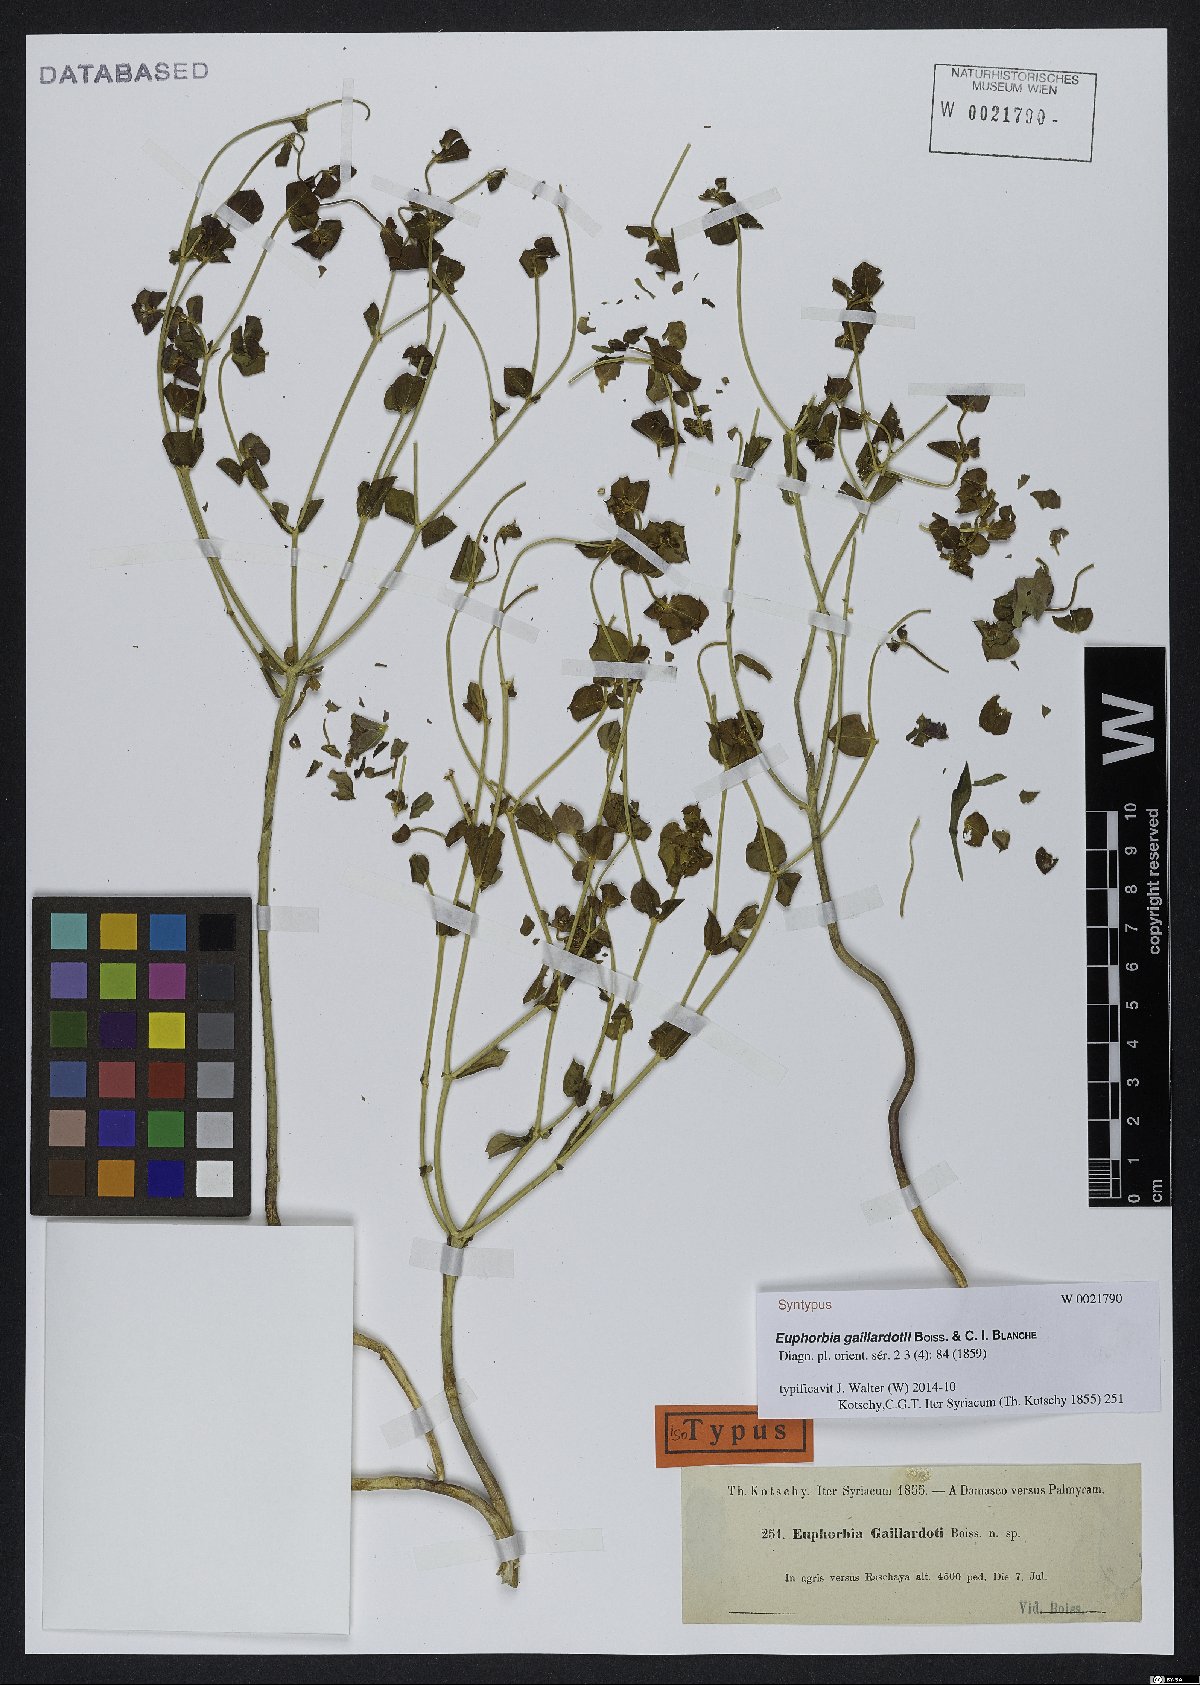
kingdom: Plantae
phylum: Tracheophyta
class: Magnoliopsida
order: Malpighiales
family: Euphorbiaceae
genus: Euphorbia
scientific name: Euphorbia gaillardotii
